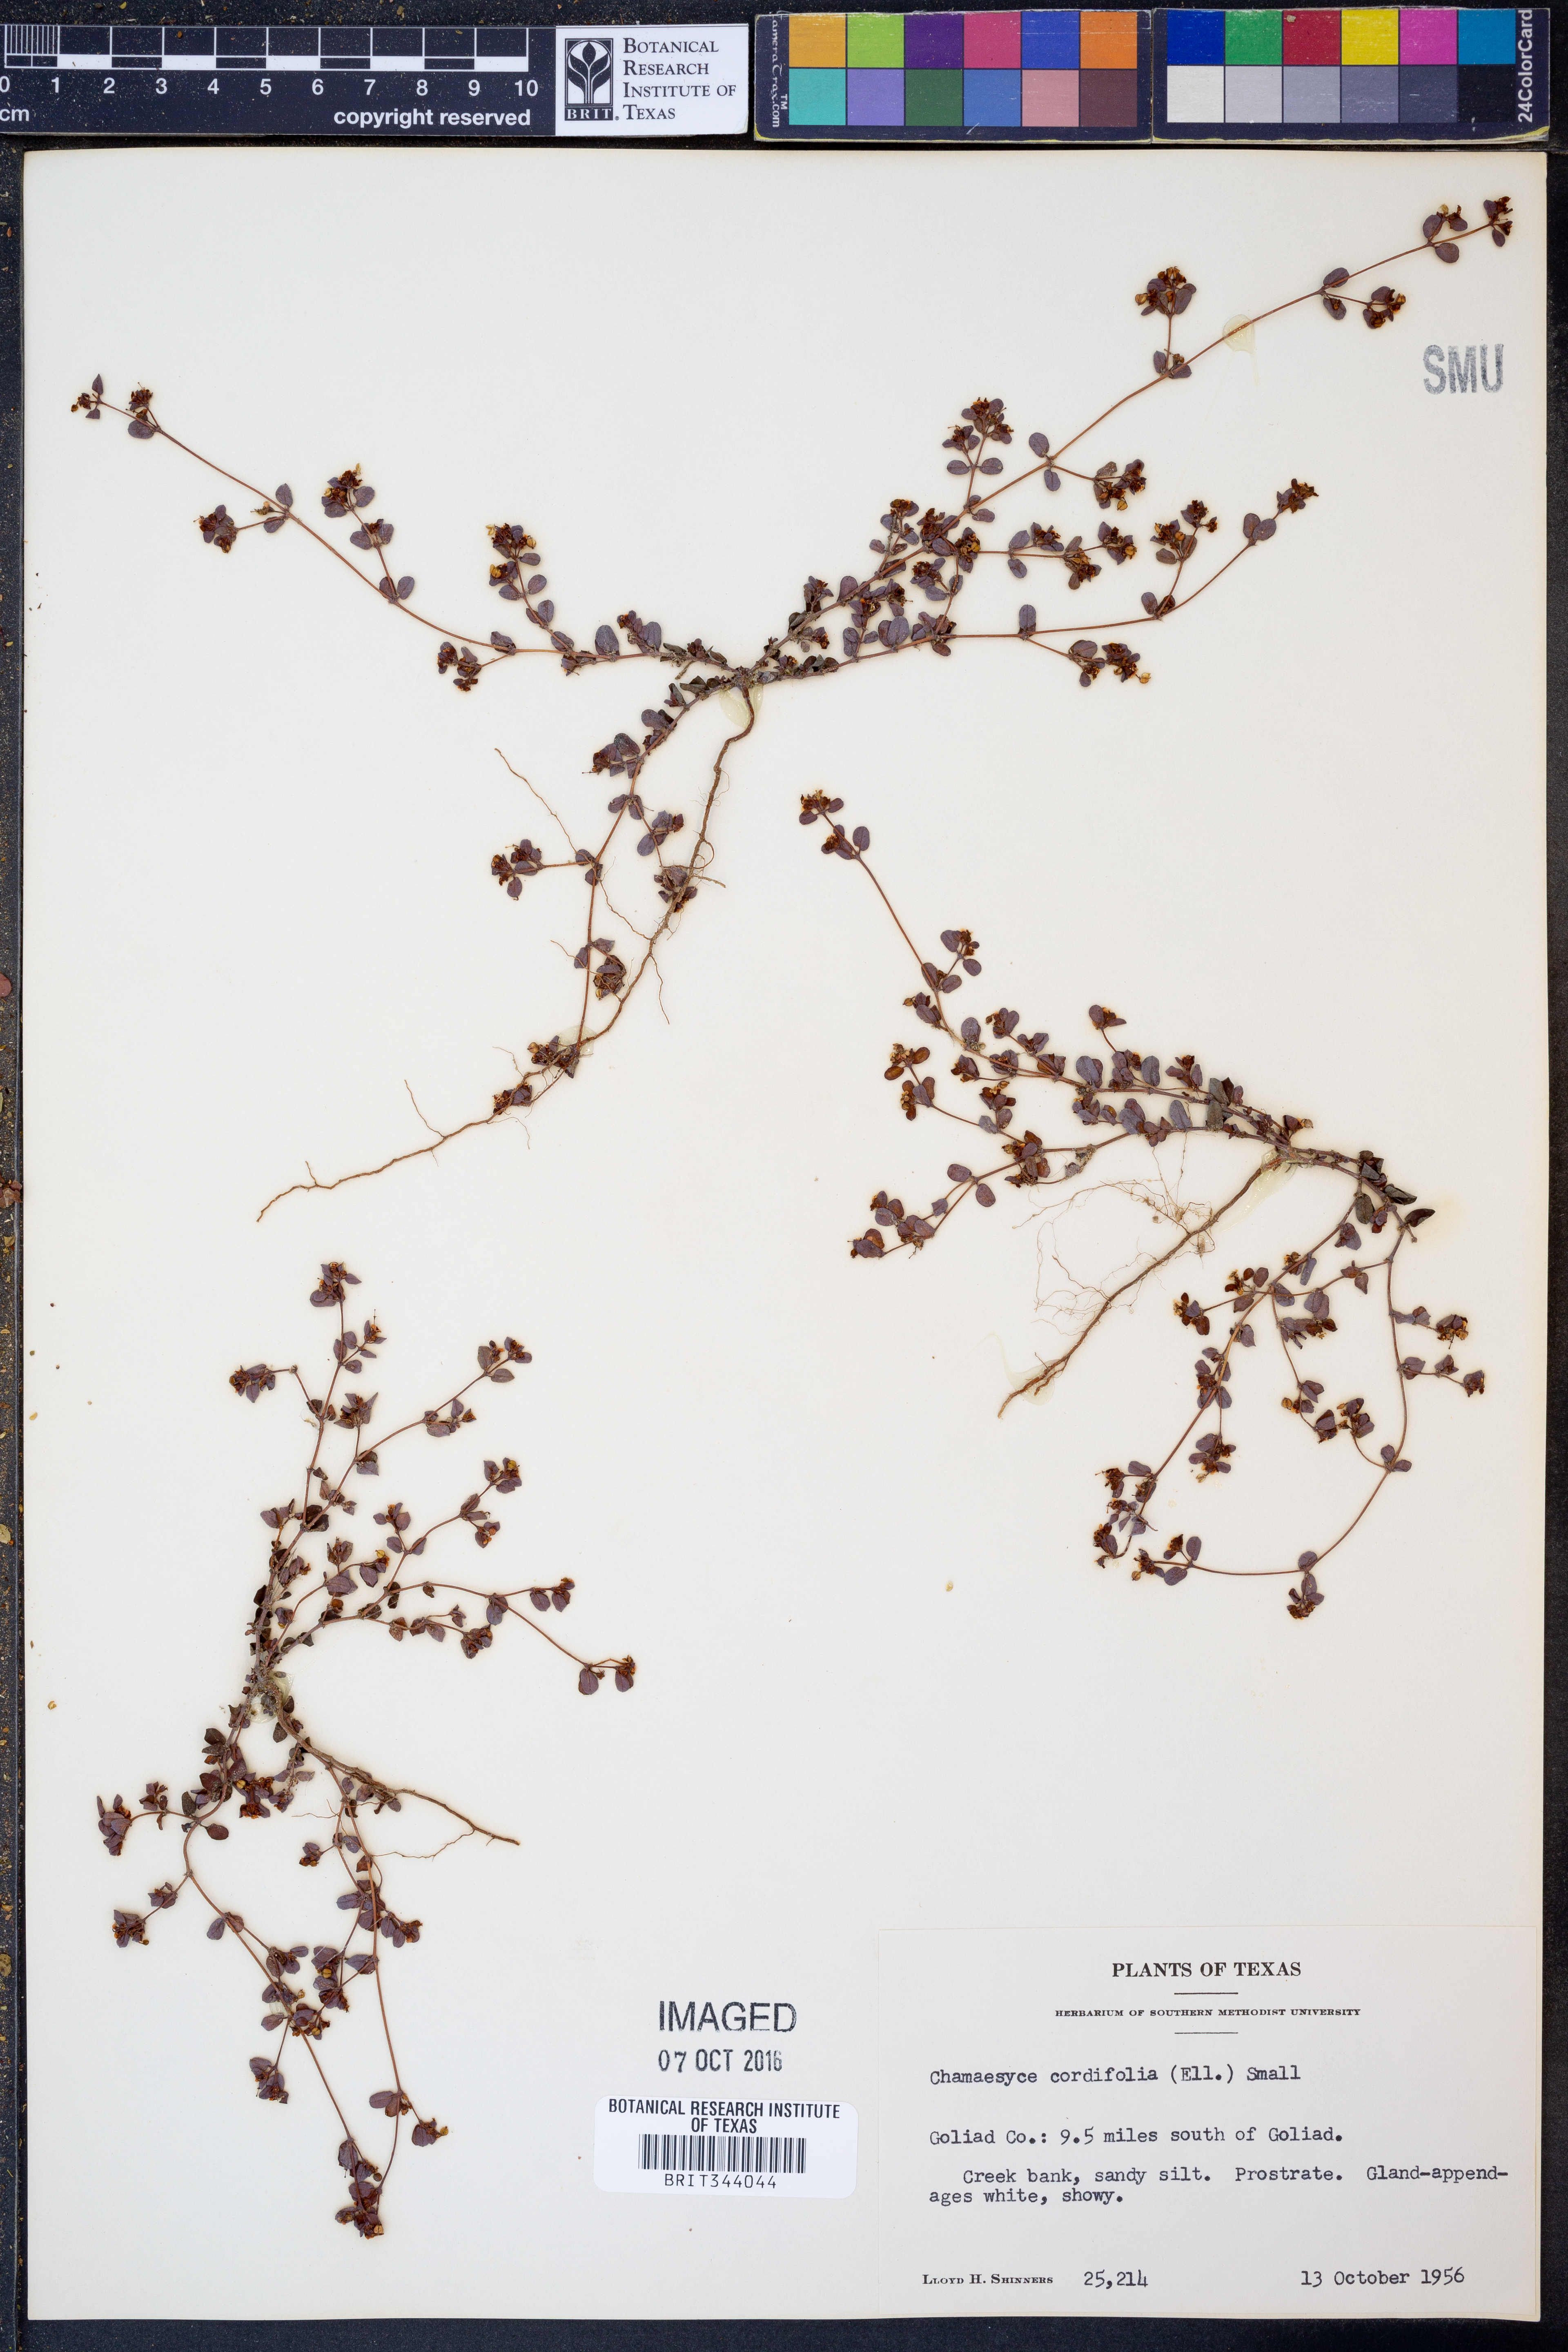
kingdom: Plantae
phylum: Tracheophyta
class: Magnoliopsida
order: Malpighiales
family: Euphorbiaceae
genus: Euphorbia
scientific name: Euphorbia cordifolia
